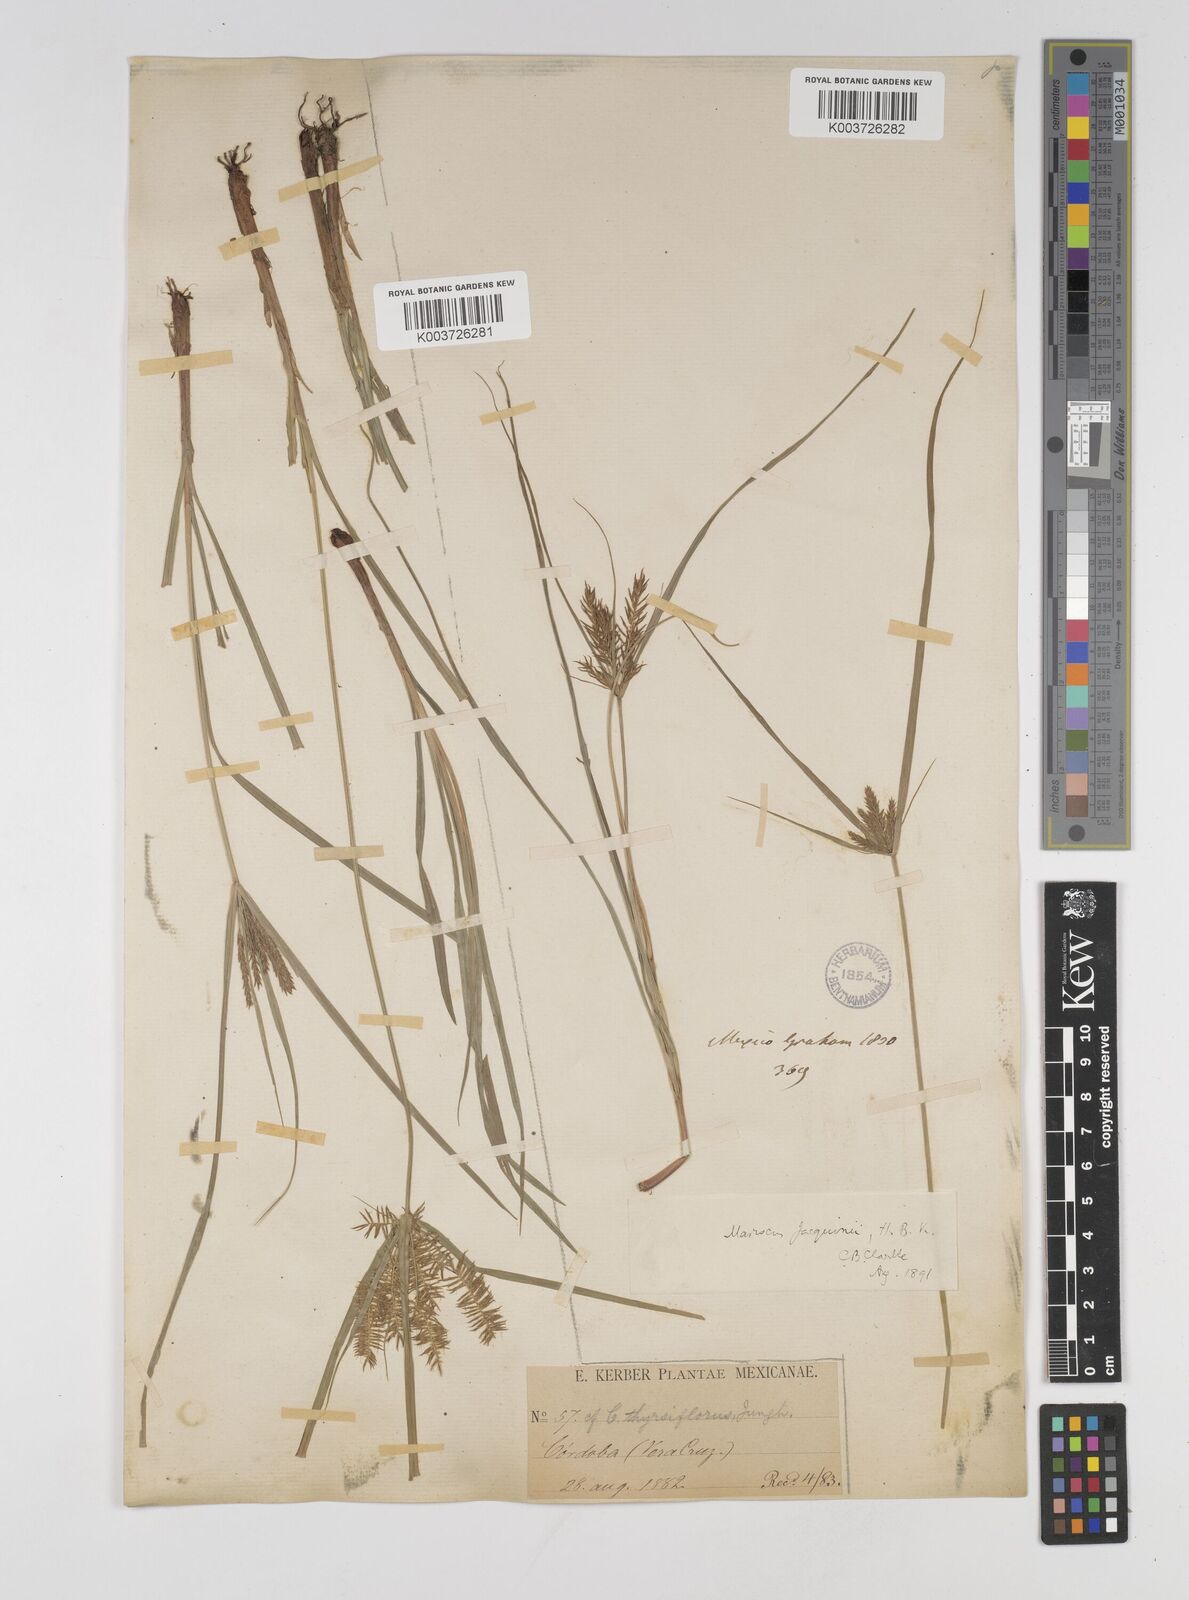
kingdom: Plantae
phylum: Tracheophyta
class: Liliopsida
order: Poales
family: Cyperaceae
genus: Cyperus
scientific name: Cyperus hermaphroditus
